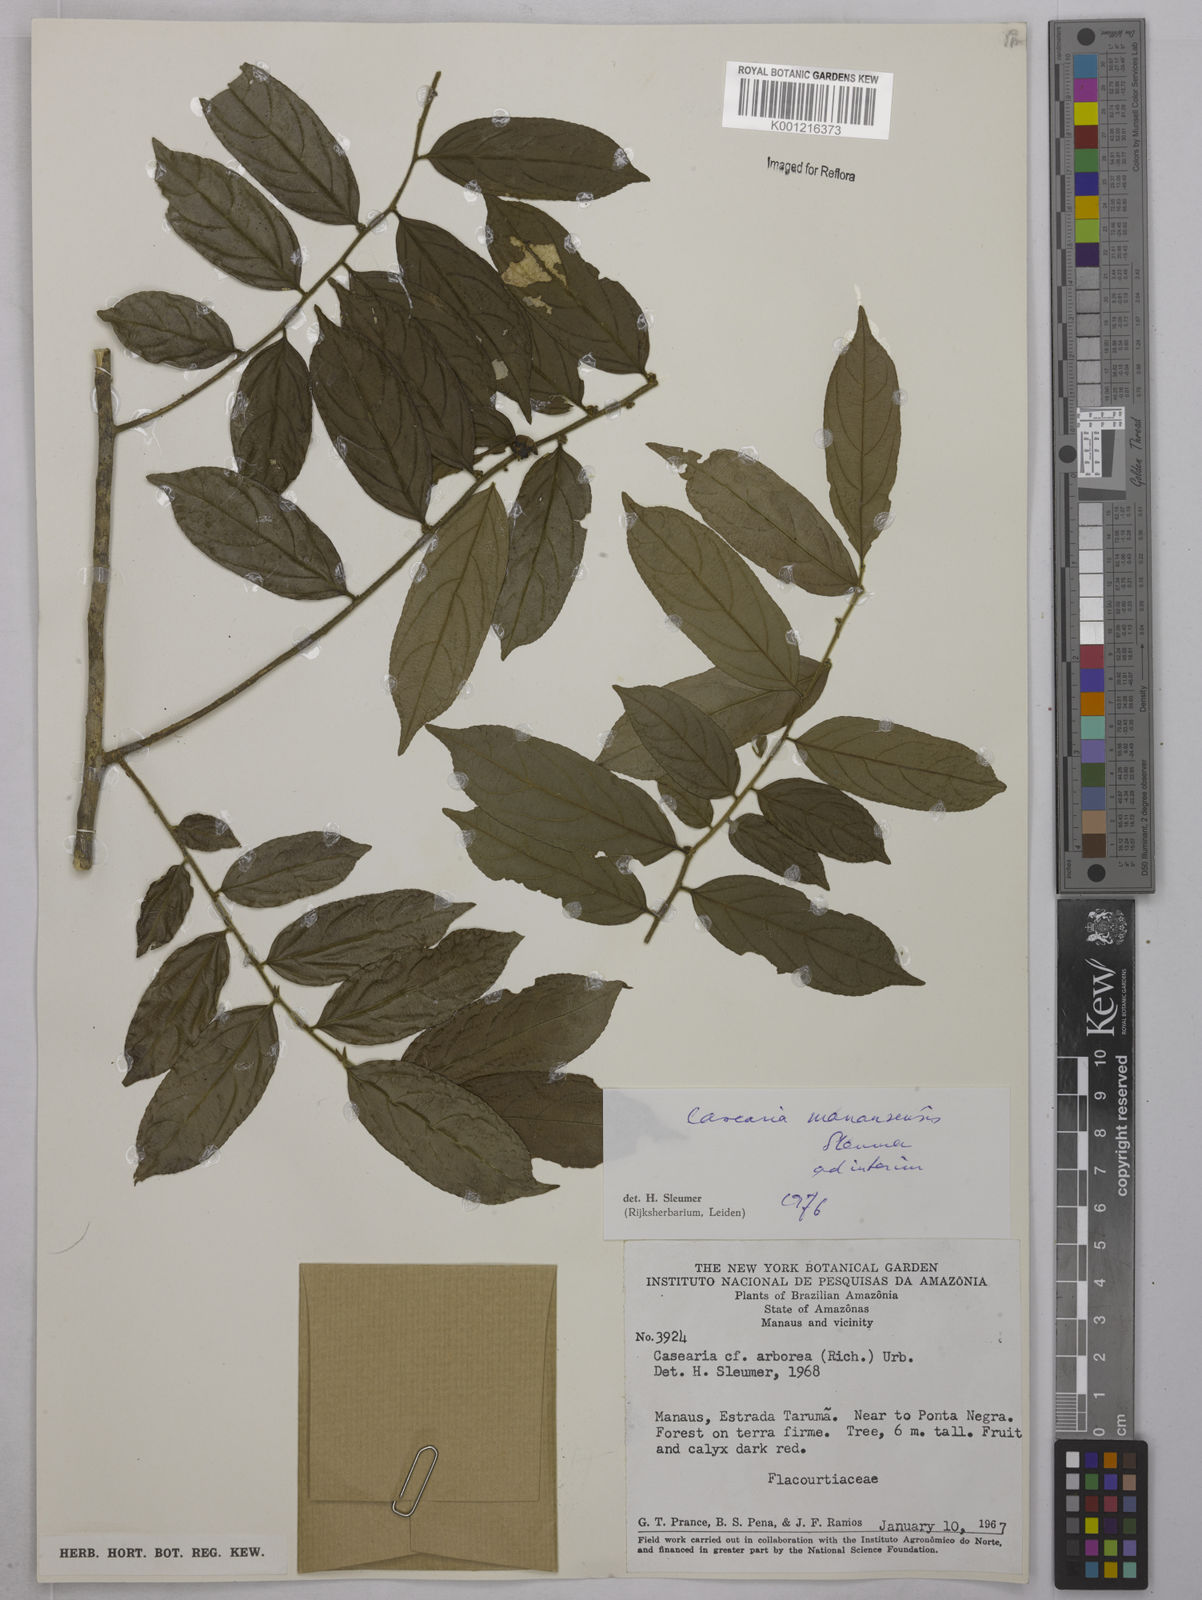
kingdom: Plantae
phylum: Tracheophyta
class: Magnoliopsida
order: Malpighiales
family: Salicaceae
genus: Casearia
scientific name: Casearia manausensis
